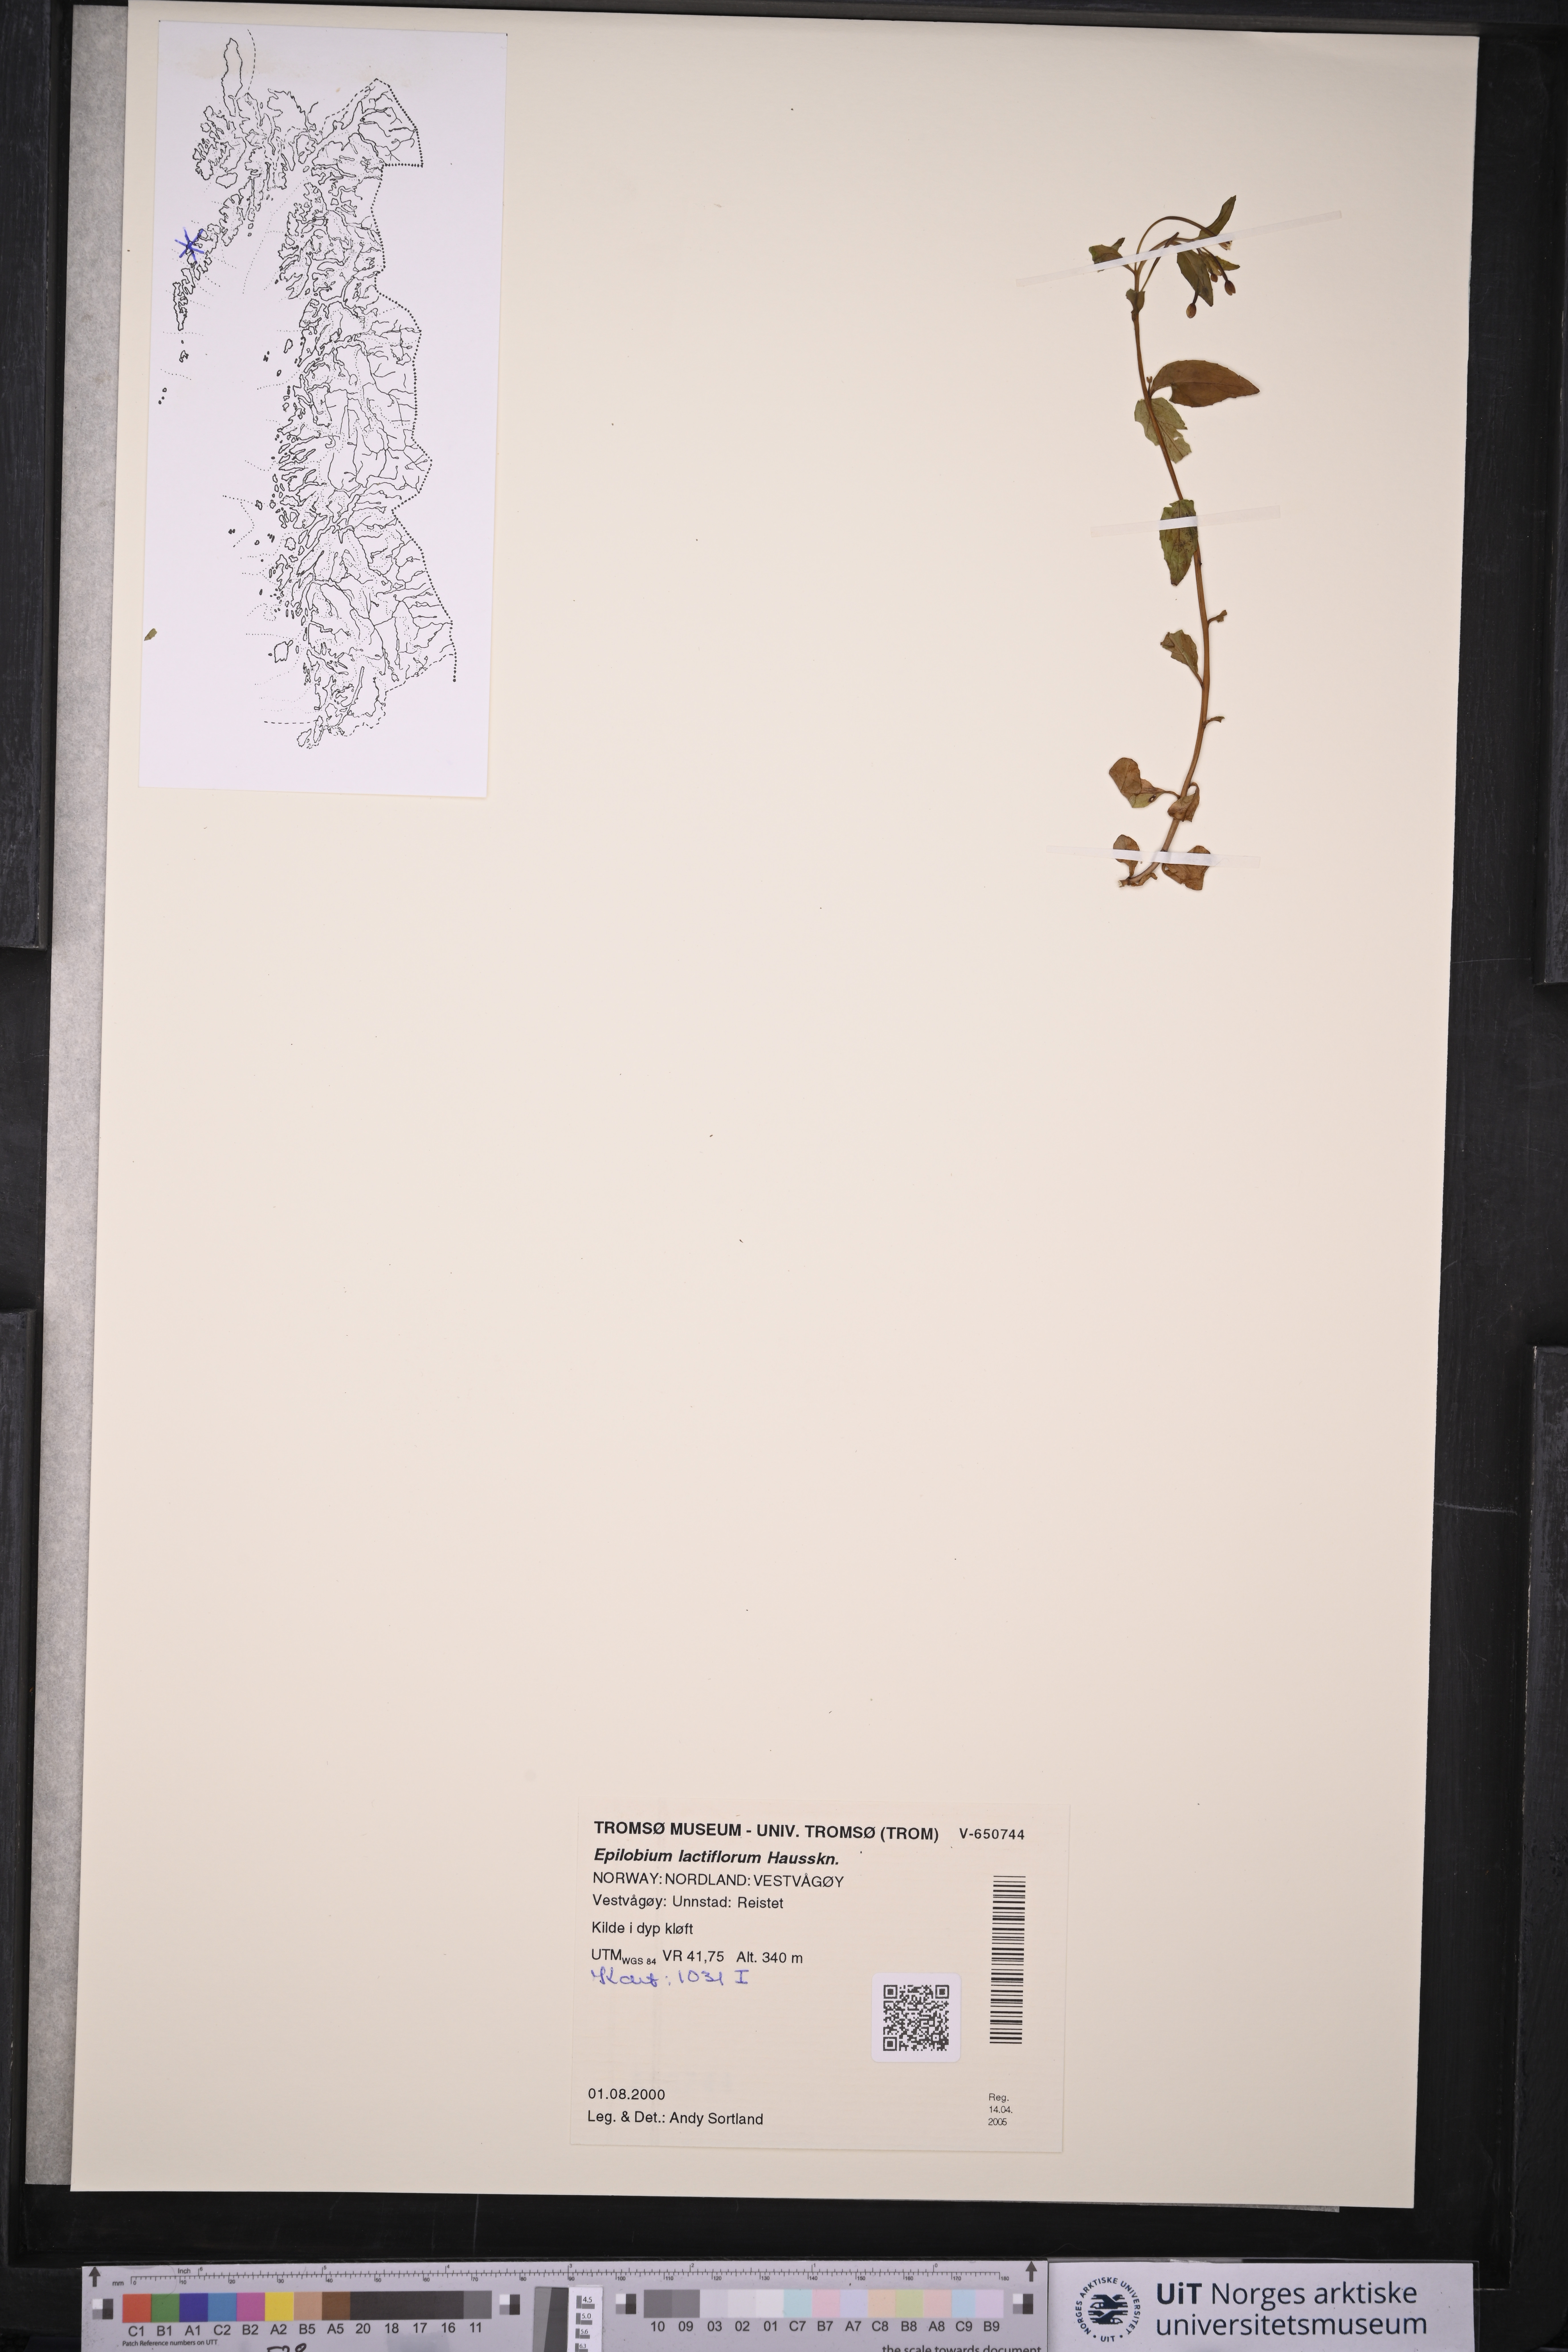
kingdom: Plantae
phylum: Tracheophyta
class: Magnoliopsida
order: Myrtales
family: Onagraceae
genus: Epilobium
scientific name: Epilobium lactiflorum
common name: Milkflower willowherb
